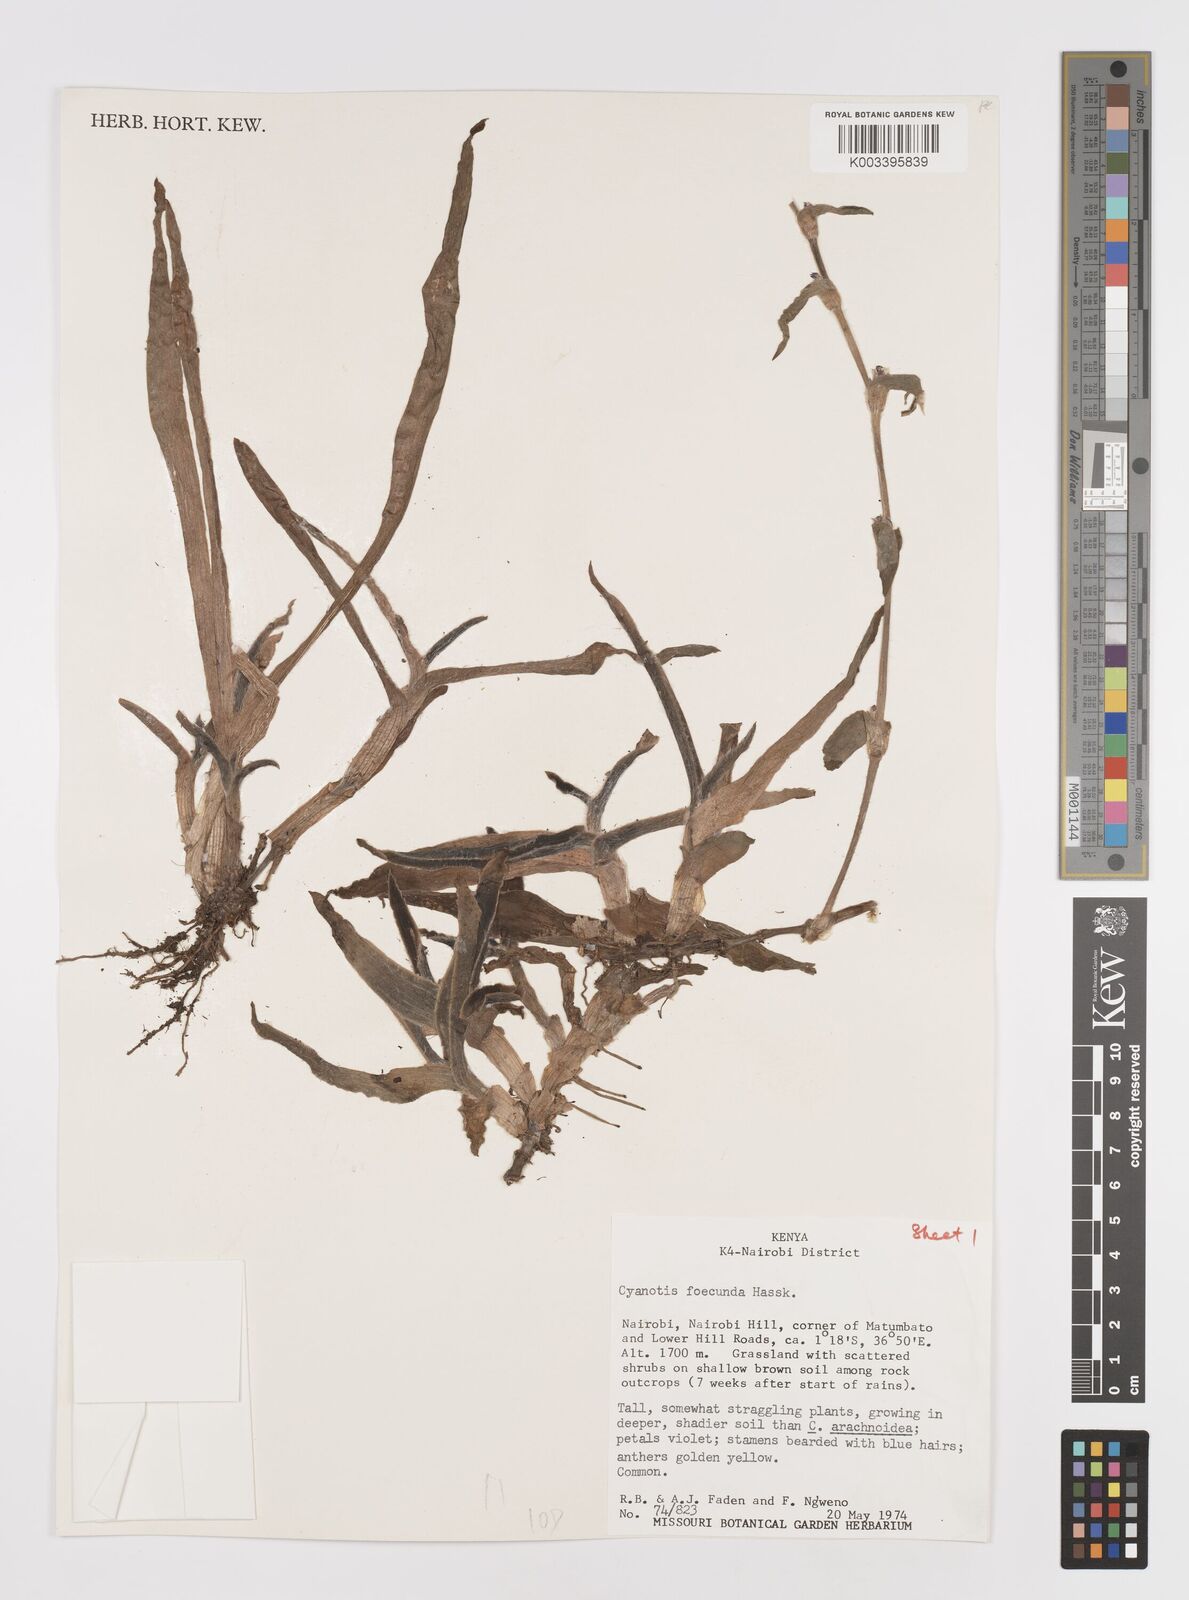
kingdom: Plantae
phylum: Tracheophyta
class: Liliopsida
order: Commelinales
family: Commelinaceae
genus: Cyanotis
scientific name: Cyanotis foecunda
